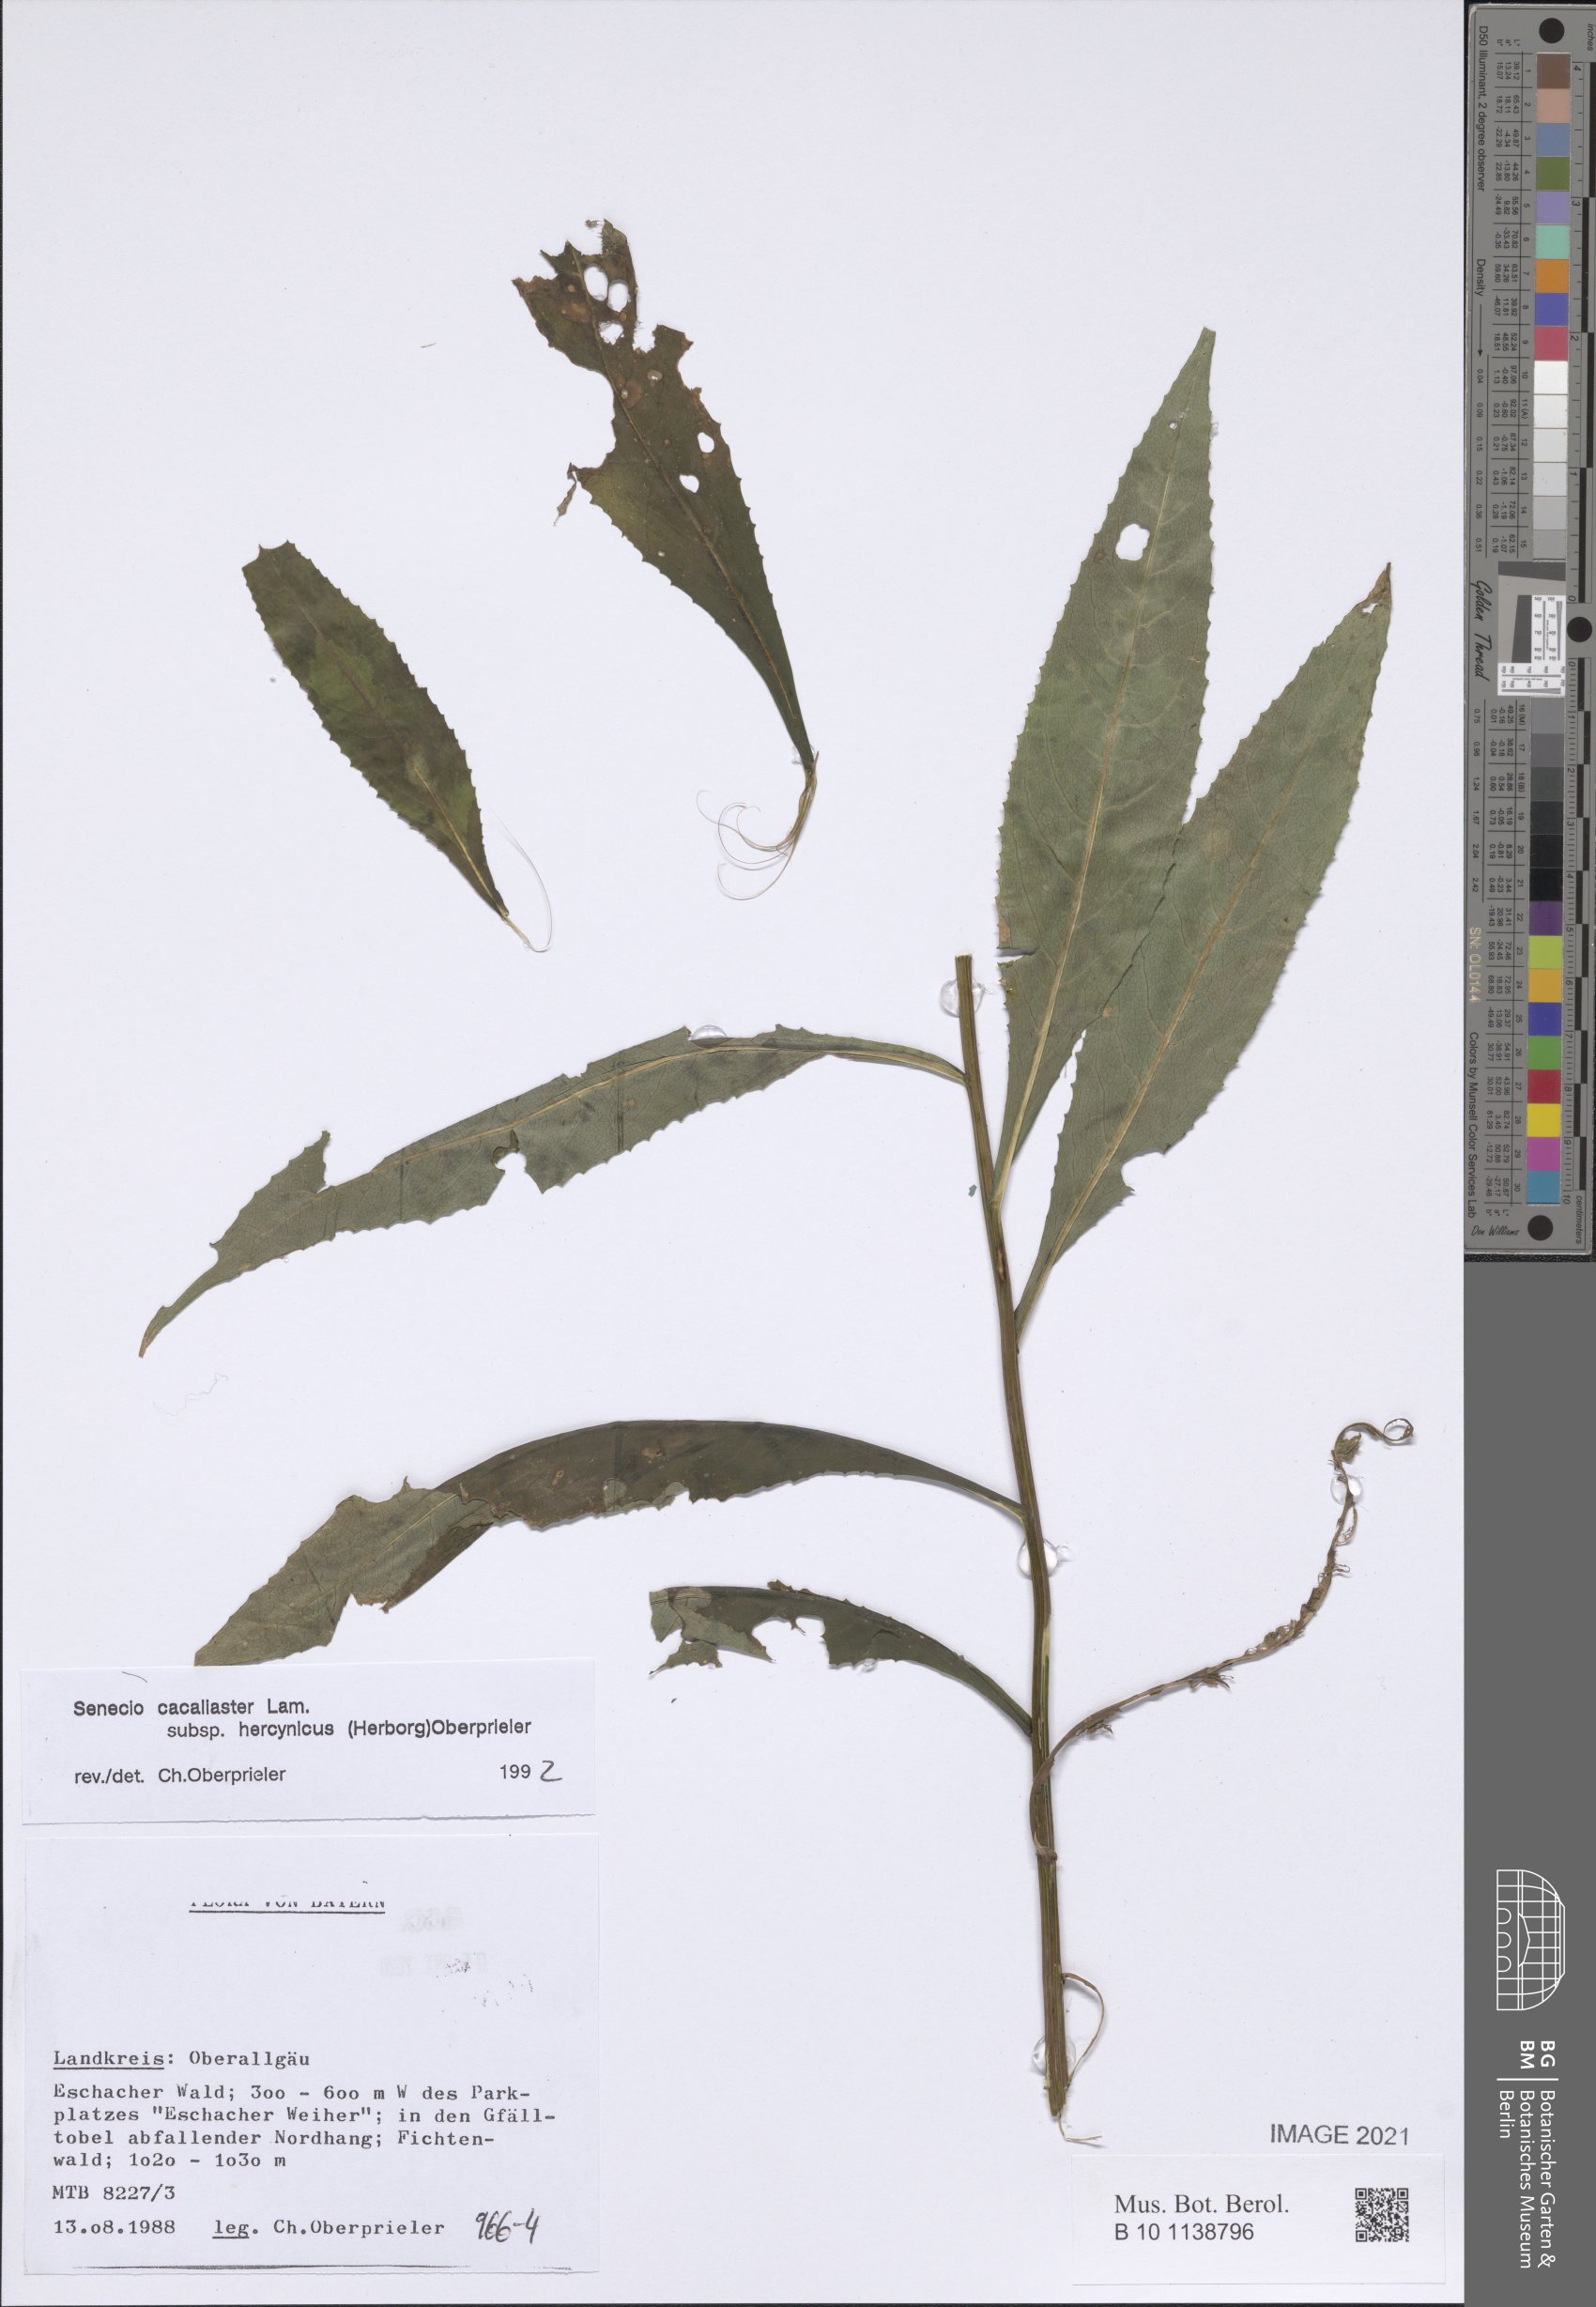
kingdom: Plantae
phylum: Tracheophyta
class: Magnoliopsida
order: Asterales
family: Asteraceae
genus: Senecio
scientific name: Senecio hercynicus
